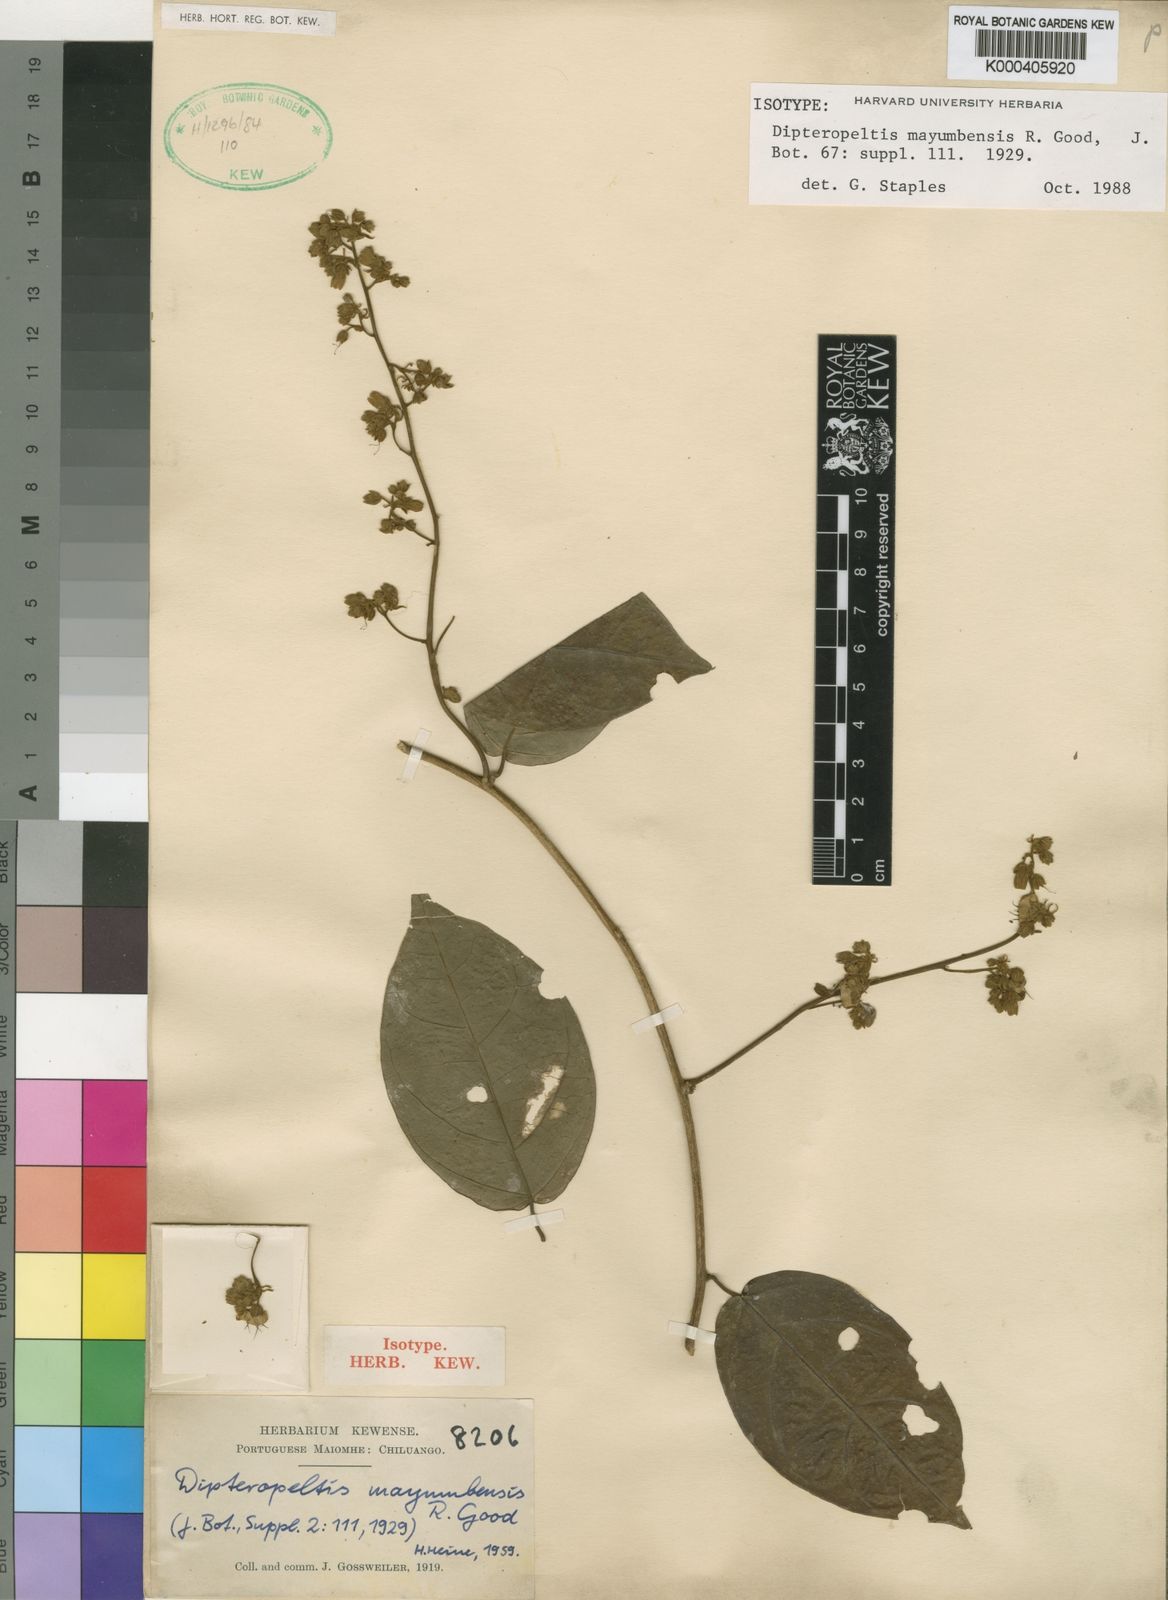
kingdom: Plantae
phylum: Tracheophyta
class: Magnoliopsida
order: Solanales
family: Convolvulaceae
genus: Dipteropeltis
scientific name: Dipteropeltis mayumbensis
